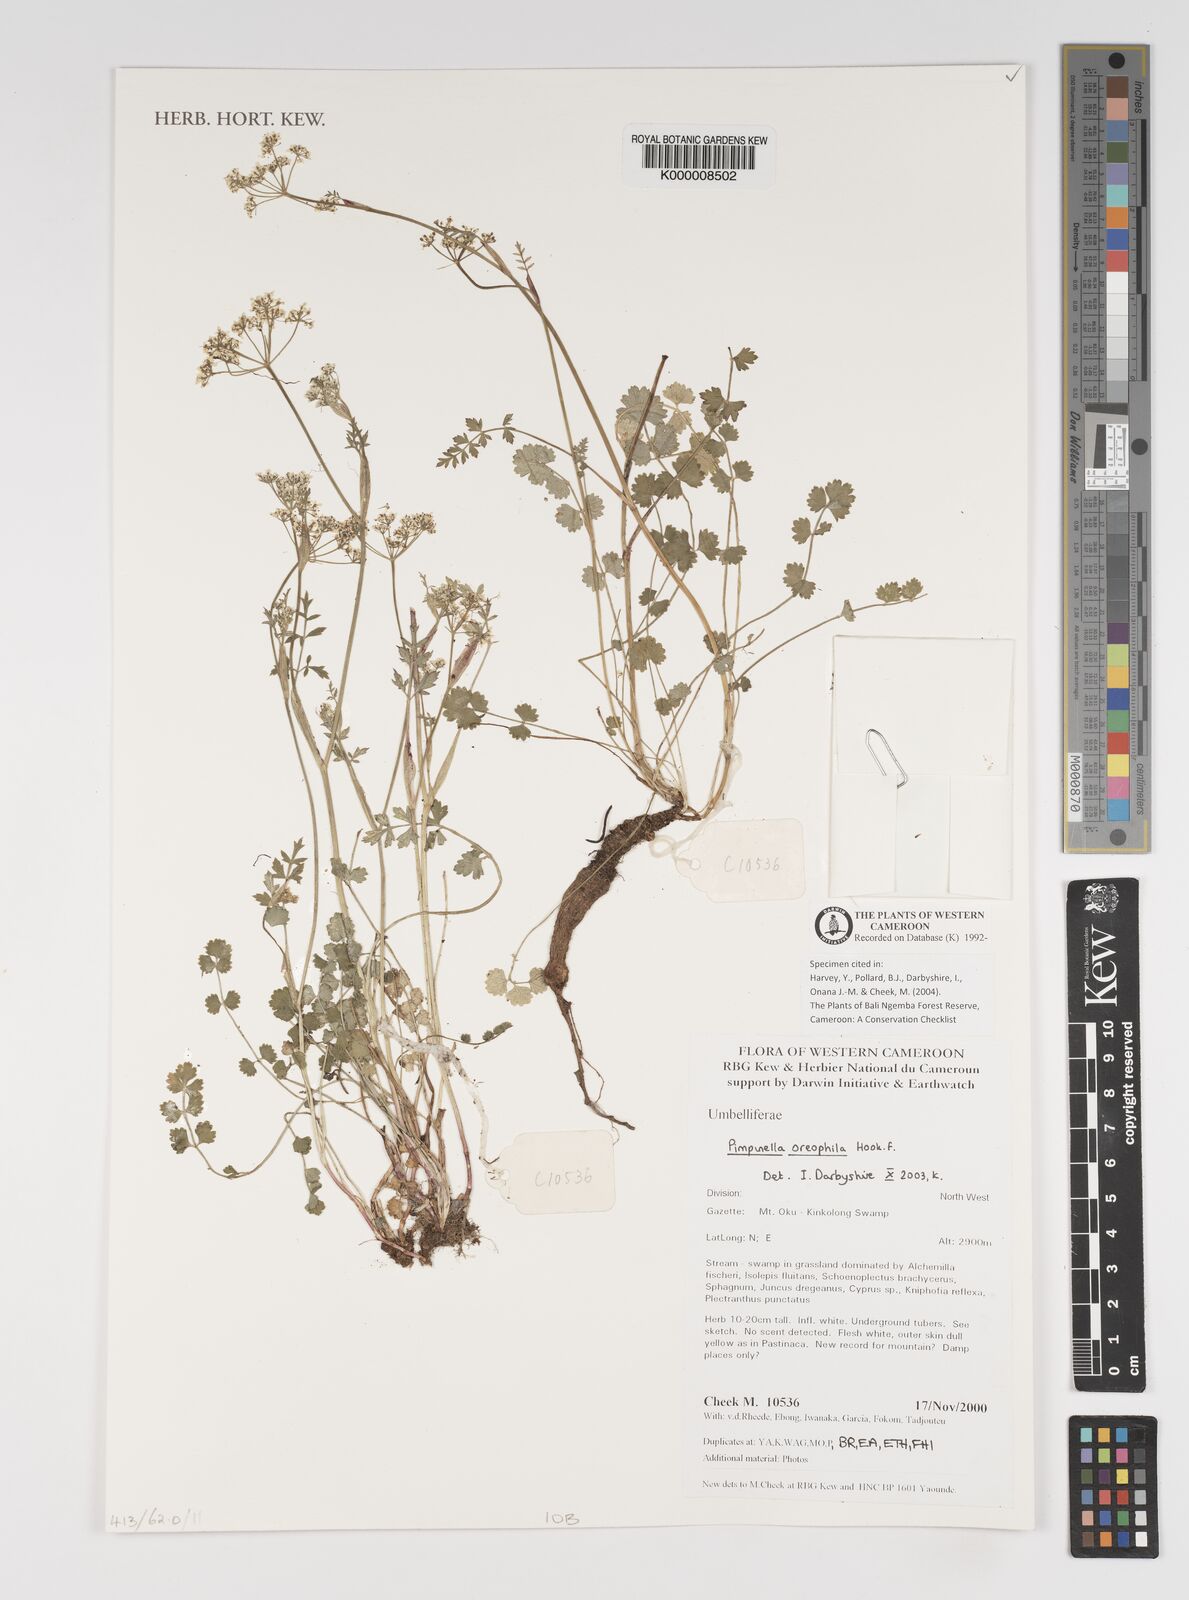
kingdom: Plantae
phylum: Tracheophyta
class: Magnoliopsida
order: Apiales
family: Apiaceae
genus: Pimpinella
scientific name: Pimpinella oreophila
